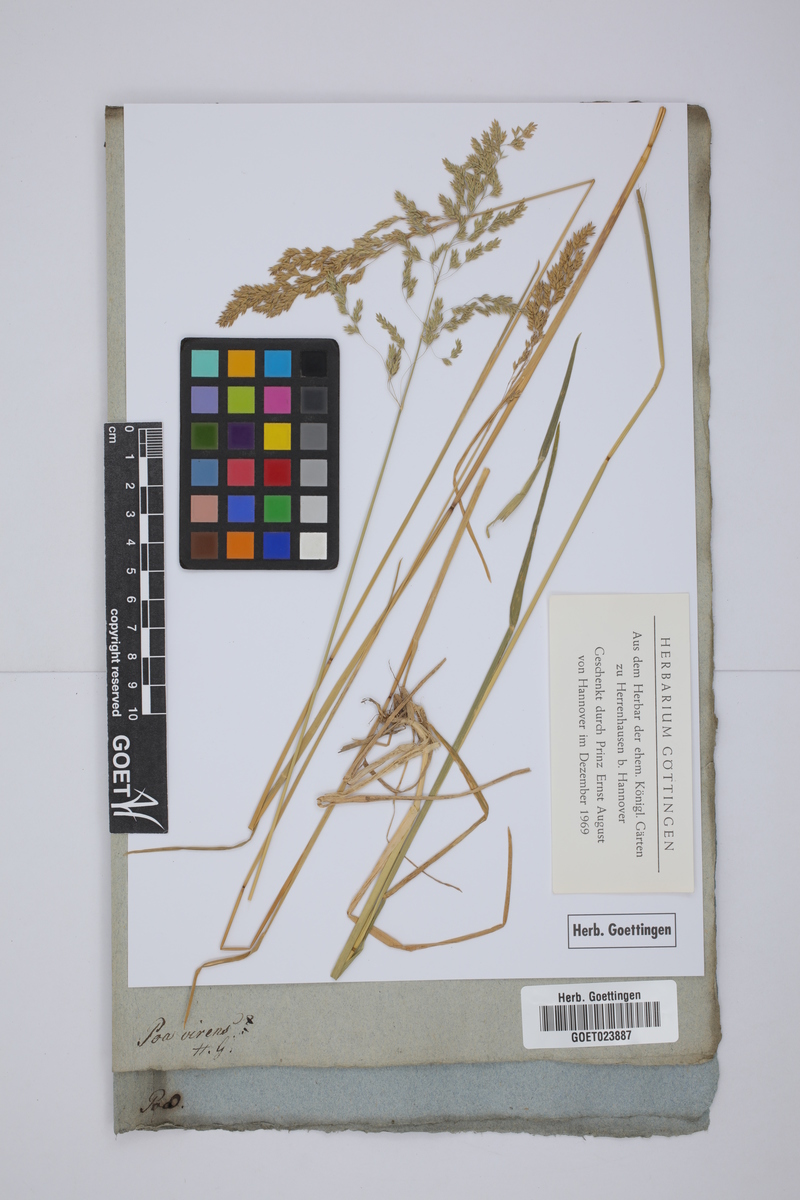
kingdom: Plantae
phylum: Tracheophyta
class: Liliopsida
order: Poales
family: Poaceae
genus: Poa
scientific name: Poa pratensis
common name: Kentucky bluegrass
